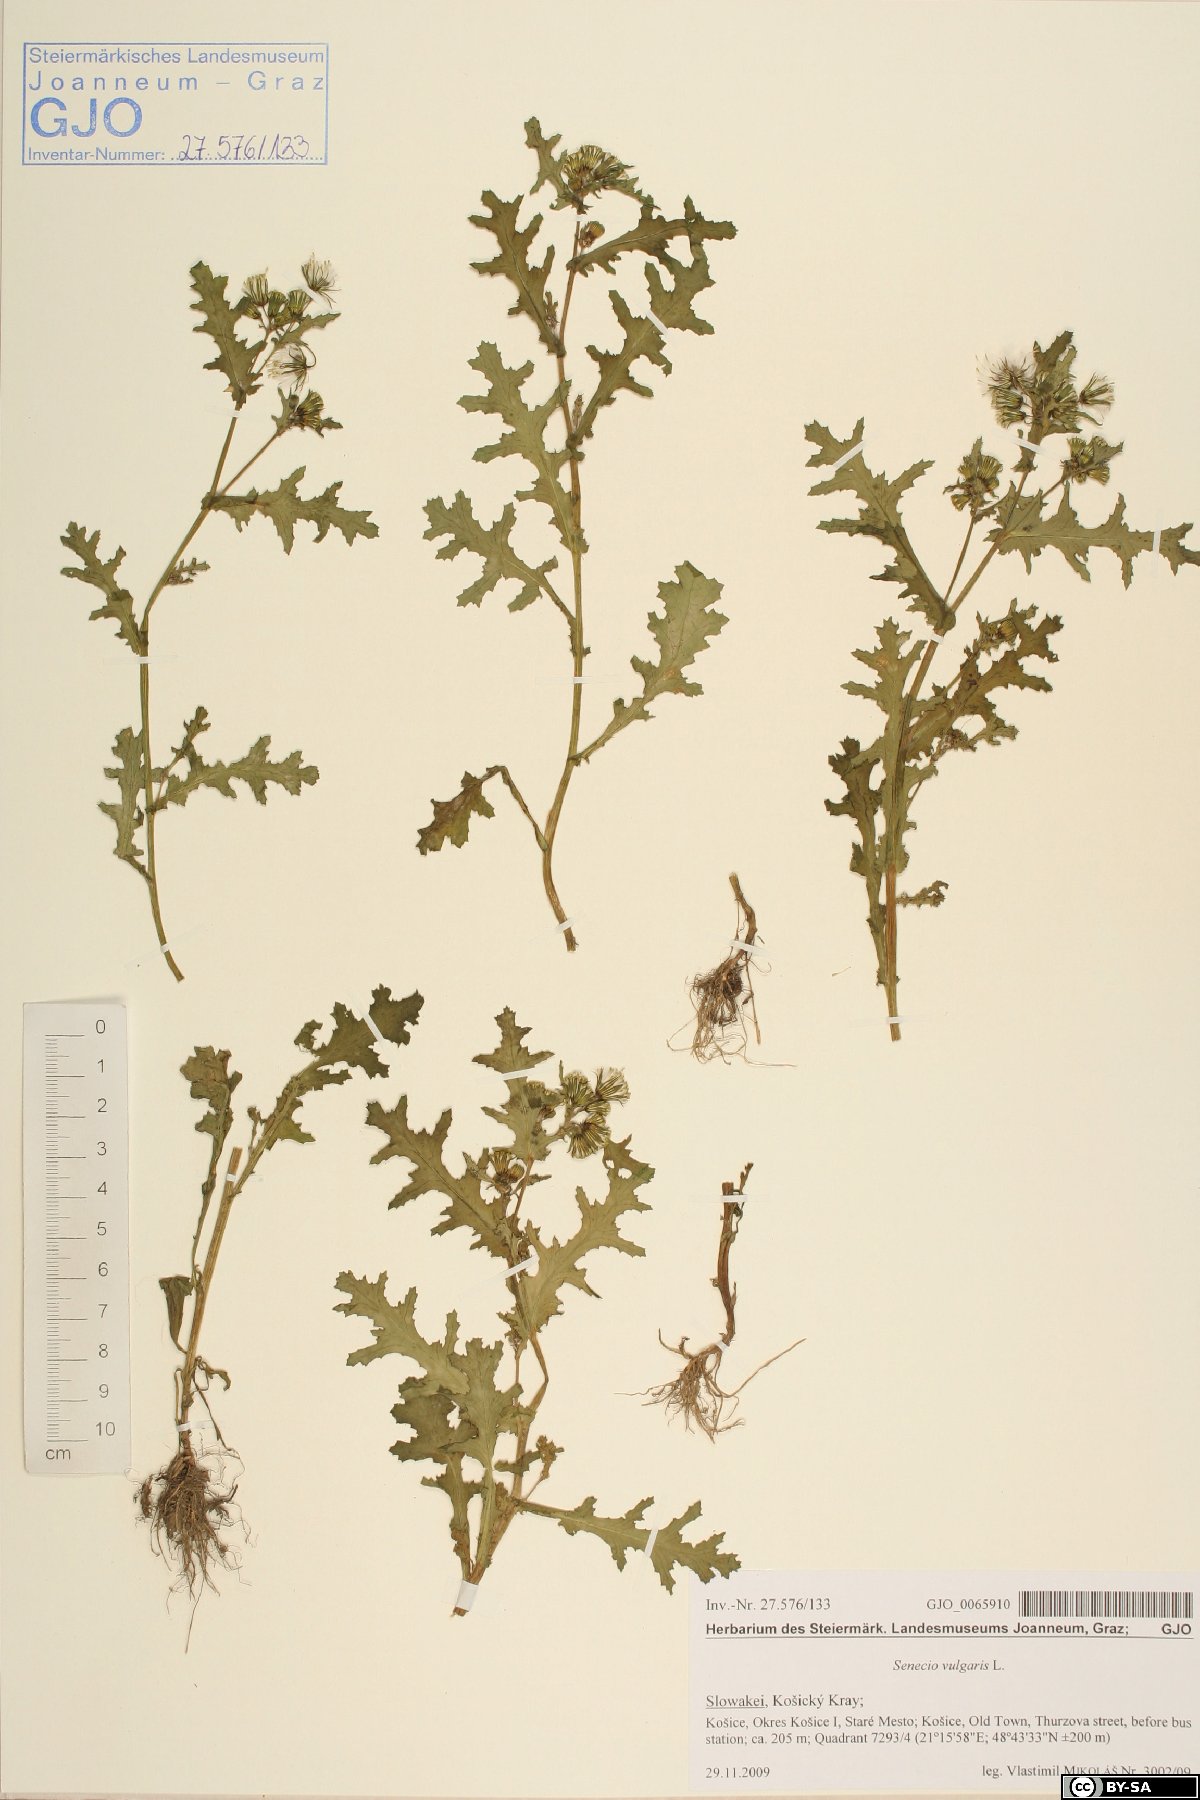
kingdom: Plantae
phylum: Tracheophyta
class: Magnoliopsida
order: Asterales
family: Asteraceae
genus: Senecio
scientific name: Senecio vulgaris
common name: Old-man-in-the-spring
